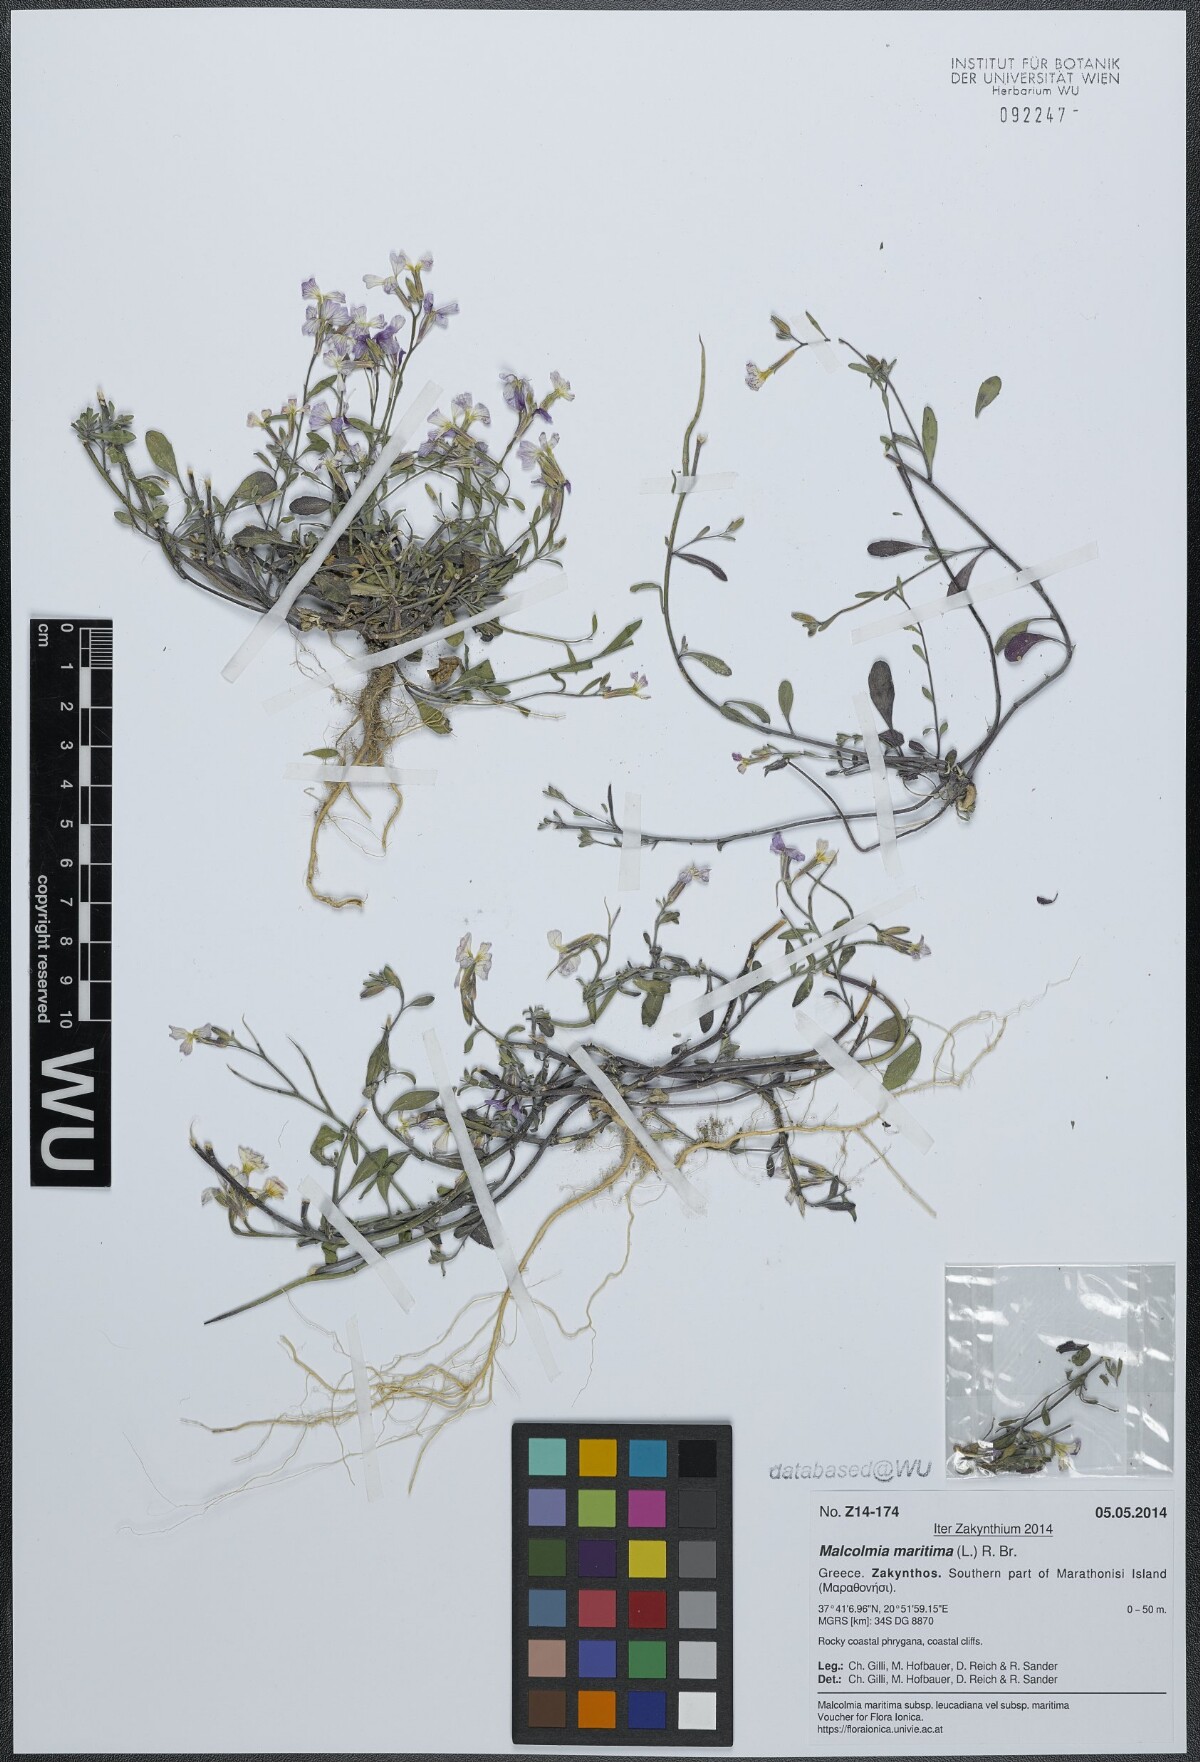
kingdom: Plantae
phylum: Tracheophyta
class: Magnoliopsida
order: Brassicales
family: Brassicaceae
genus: Malcolmia
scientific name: Malcolmia maritima
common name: Virginia stock
